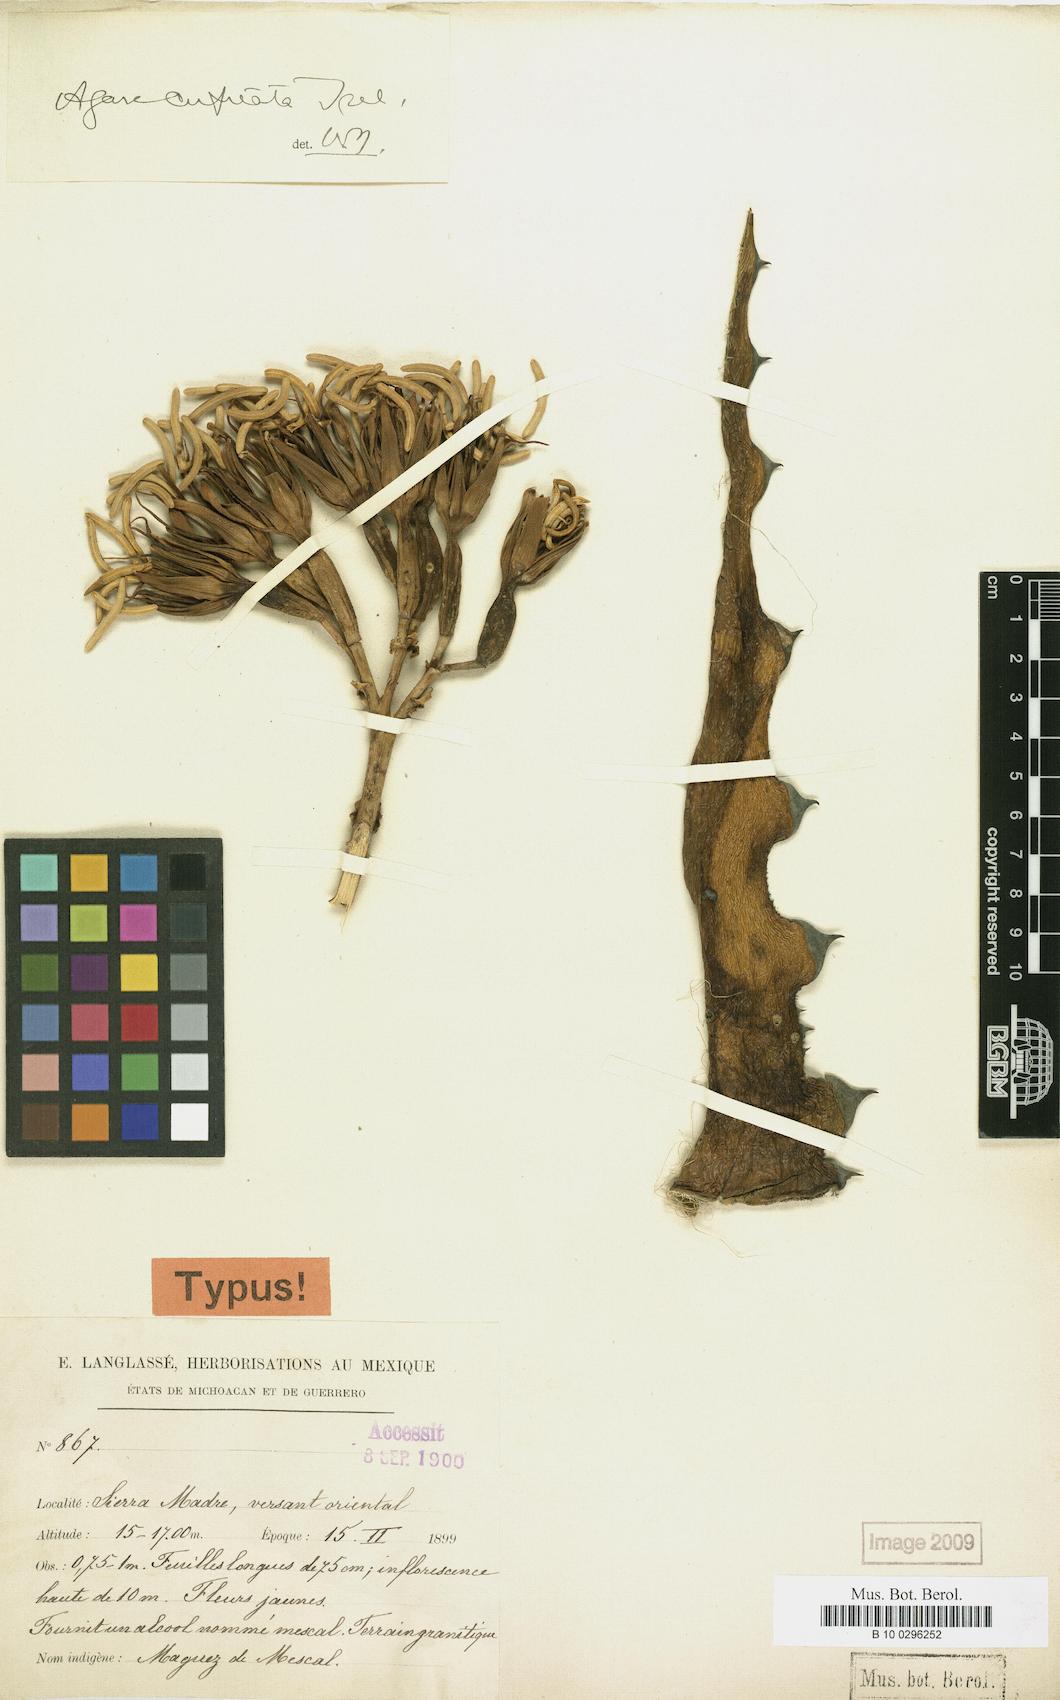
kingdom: Plantae
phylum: Tracheophyta
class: Liliopsida
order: Asparagales
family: Asparagaceae
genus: Agave
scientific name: Agave cupreata
